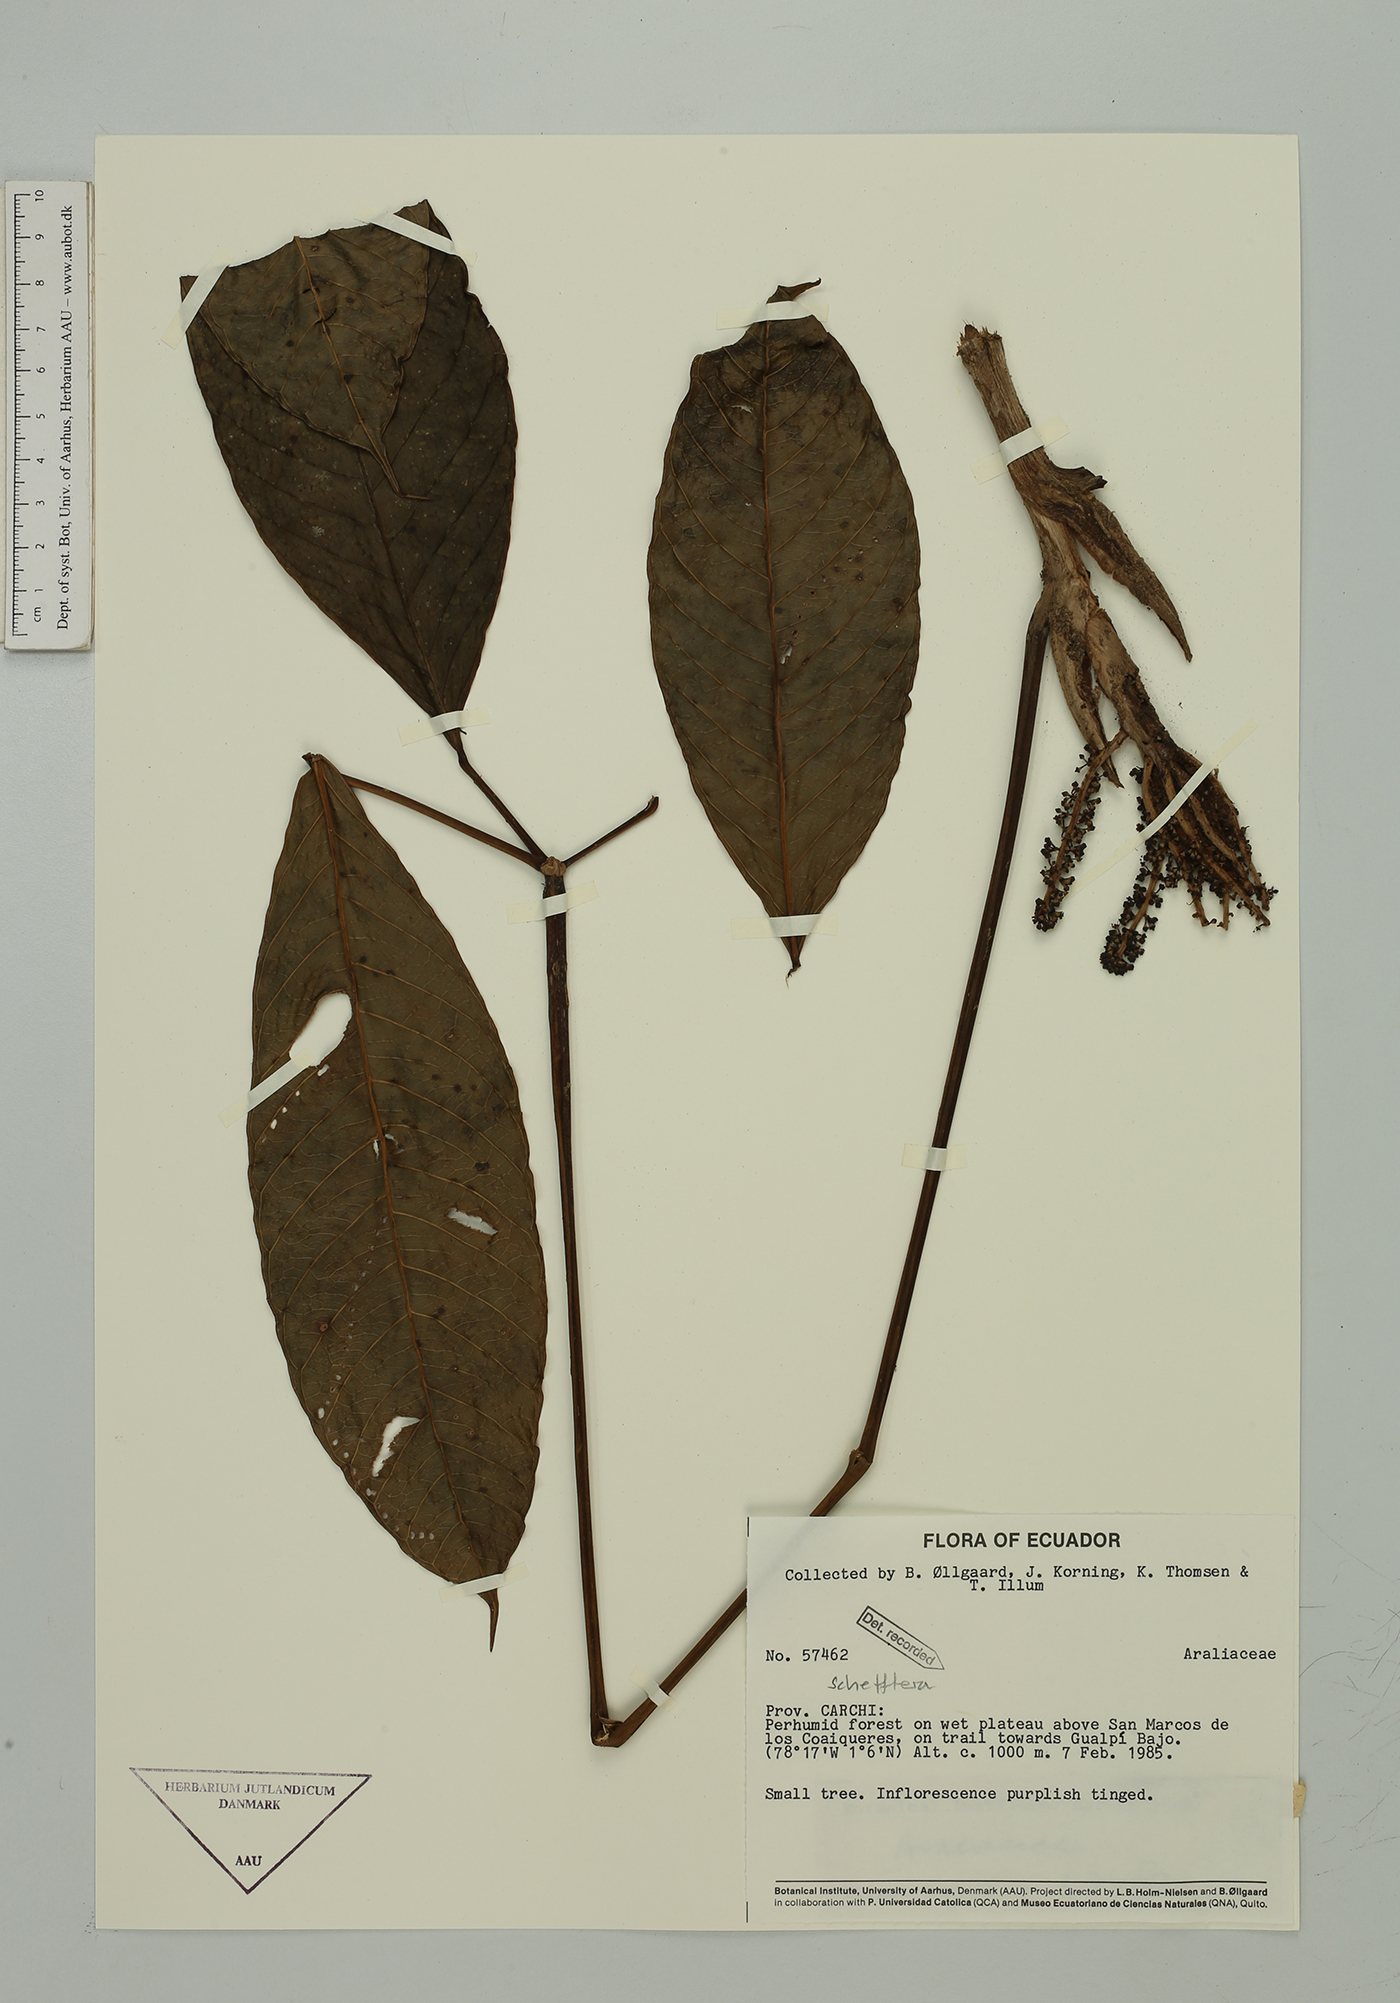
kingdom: Plantae
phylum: Tracheophyta
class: Magnoliopsida
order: Apiales
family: Araliaceae
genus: Sciodaphyllum
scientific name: Sciodaphyllum
